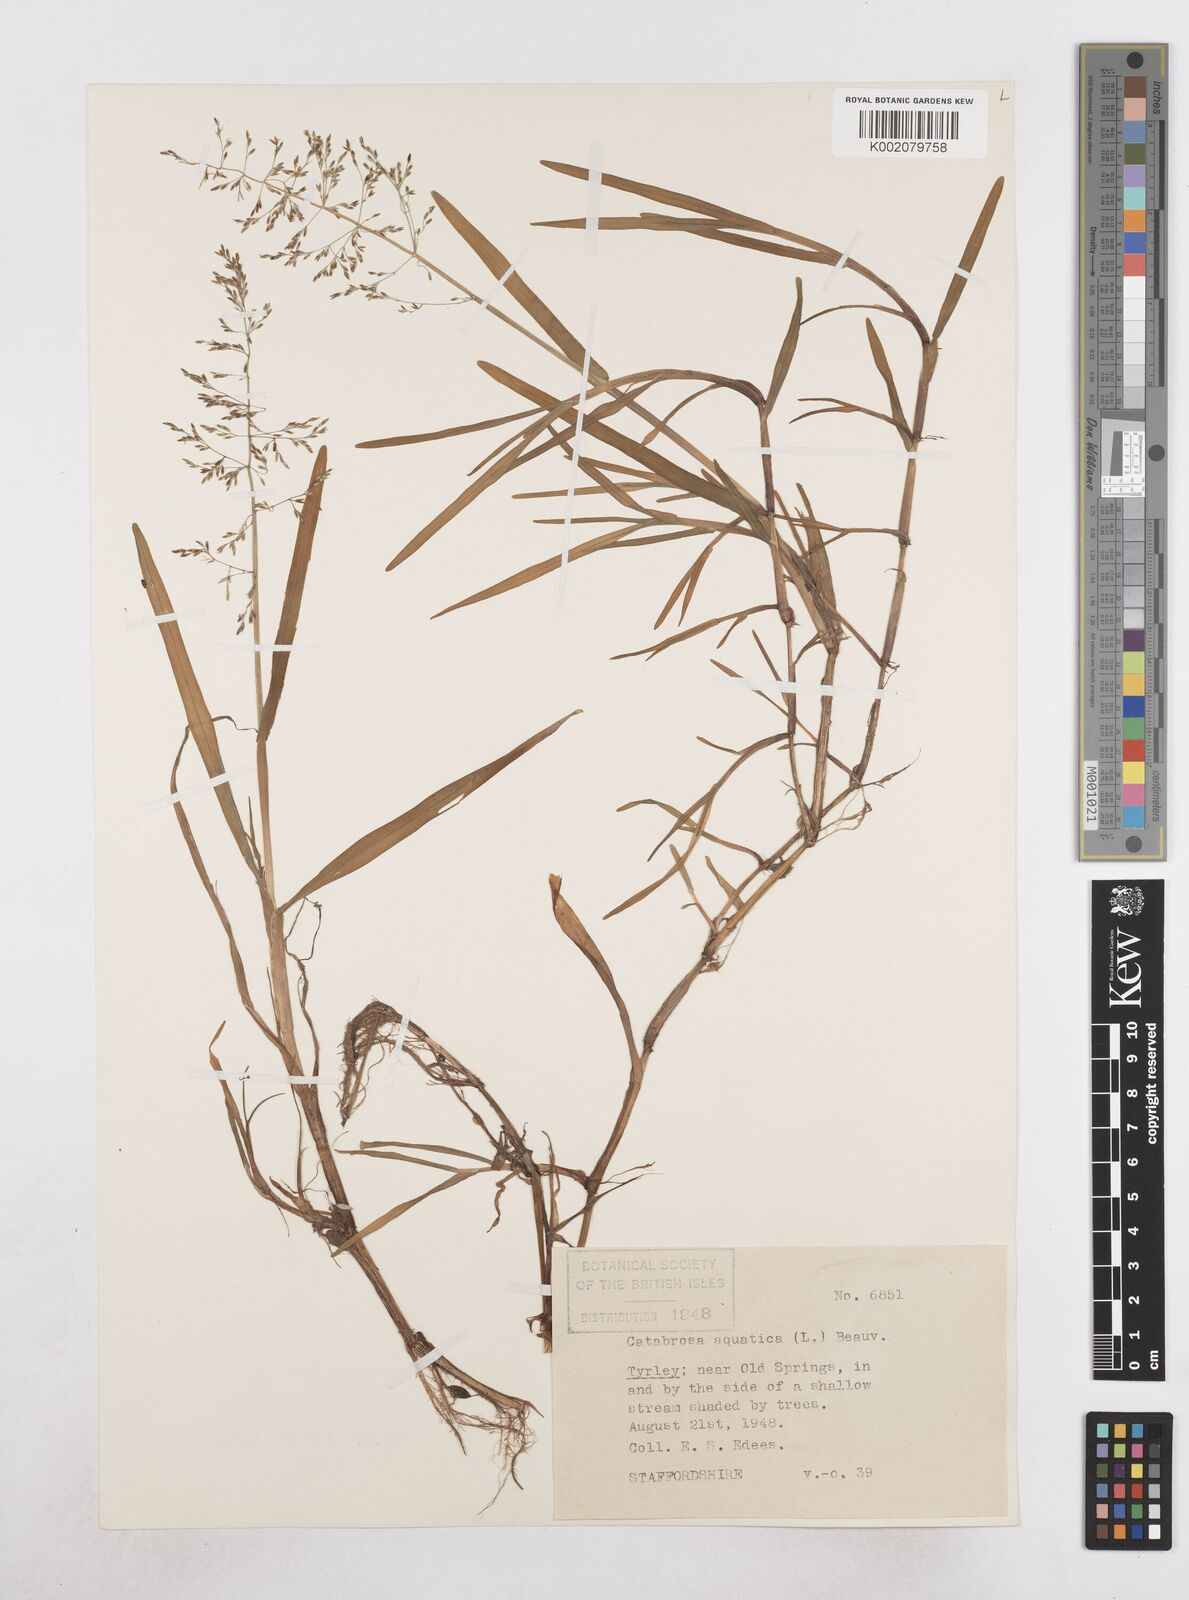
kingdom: Plantae
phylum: Tracheophyta
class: Liliopsida
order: Poales
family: Poaceae
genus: Catabrosa
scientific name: Catabrosa aquatica
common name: Whorl-grass
